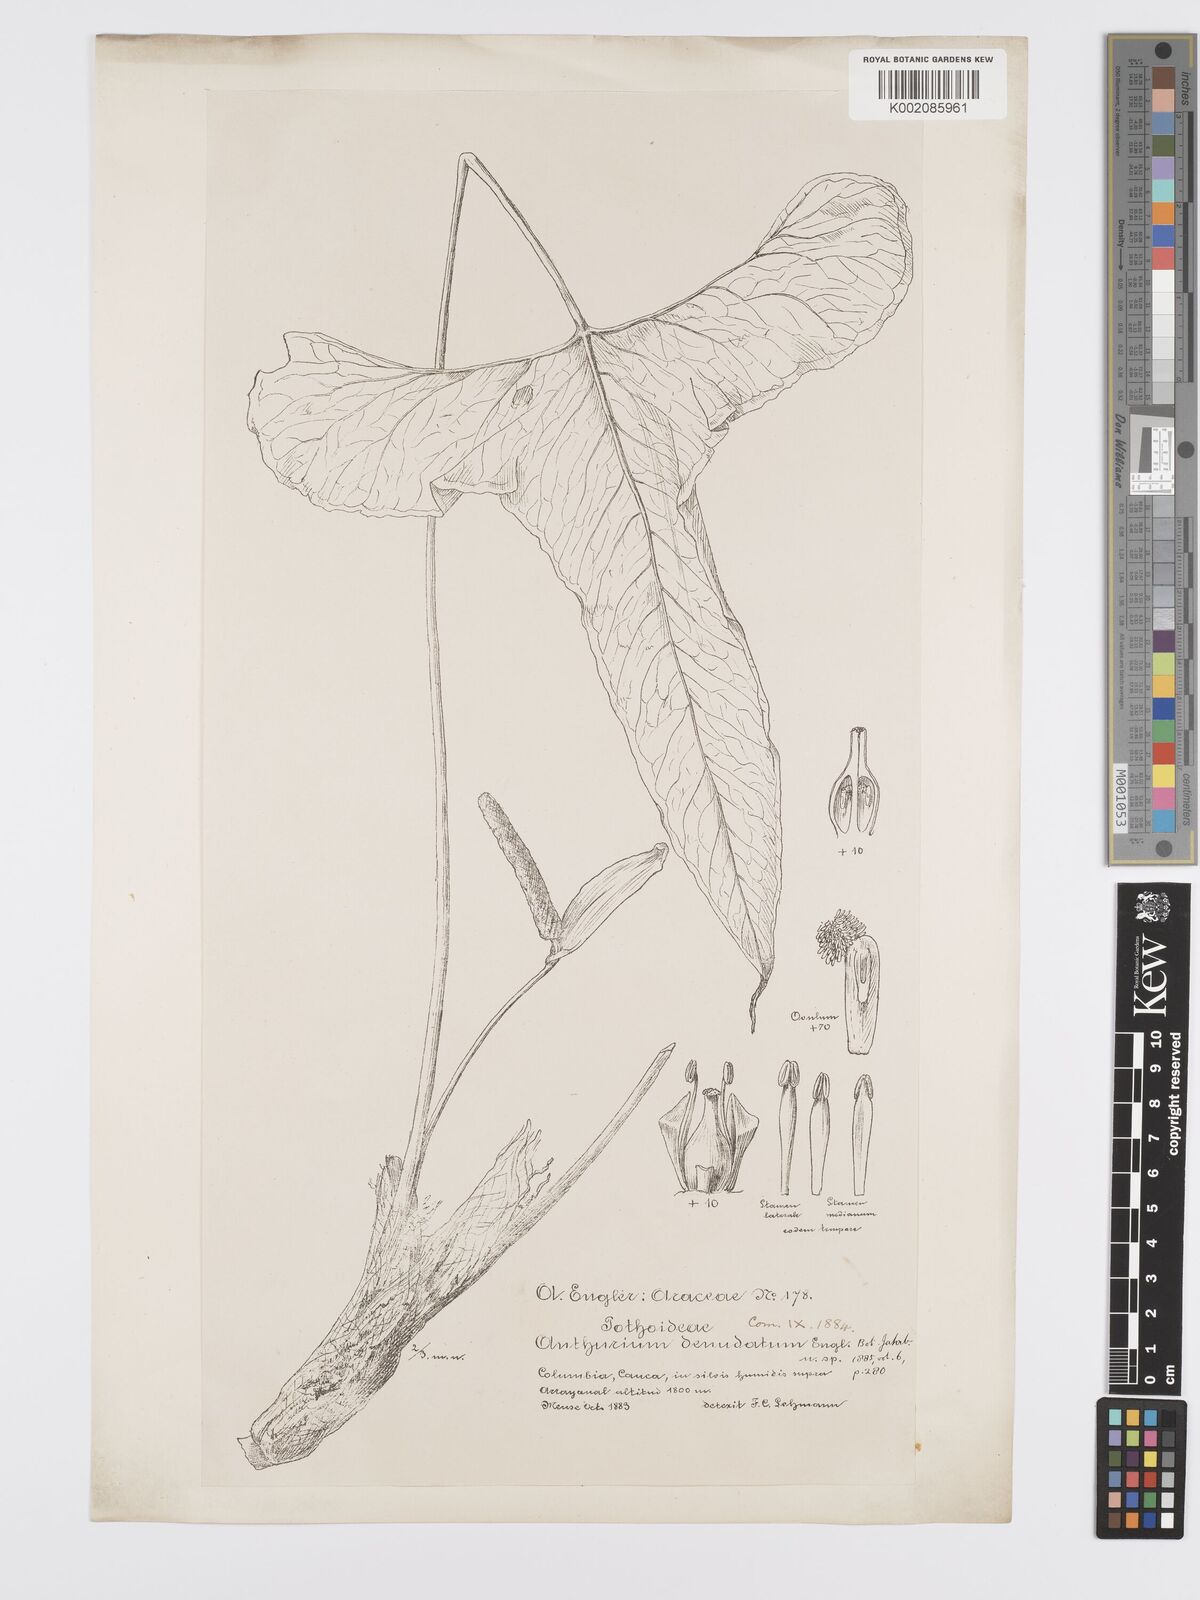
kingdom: Plantae
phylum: Tracheophyta
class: Liliopsida
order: Alismatales
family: Araceae
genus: Anthurium
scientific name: Anthurium denudatum
